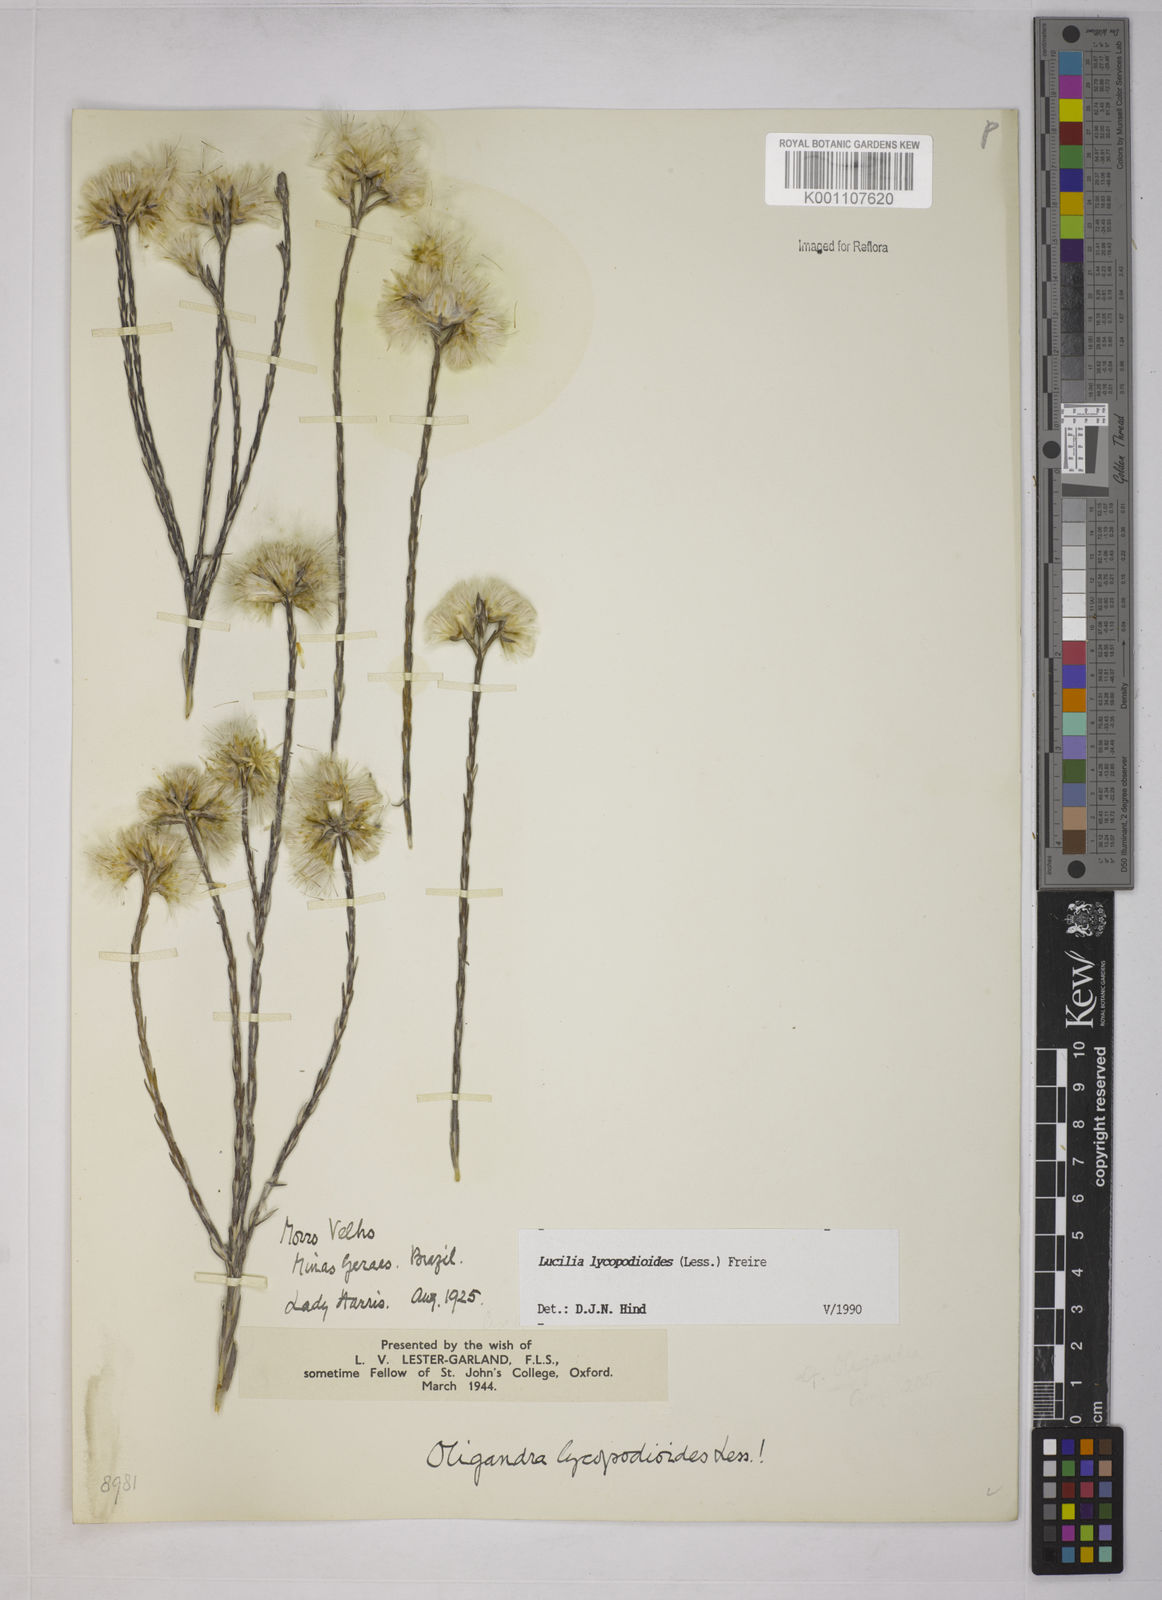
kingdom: Plantae
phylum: Tracheophyta
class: Magnoliopsida
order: Asterales
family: Asteraceae
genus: Lucilia
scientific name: Lucilia lycopodioides
